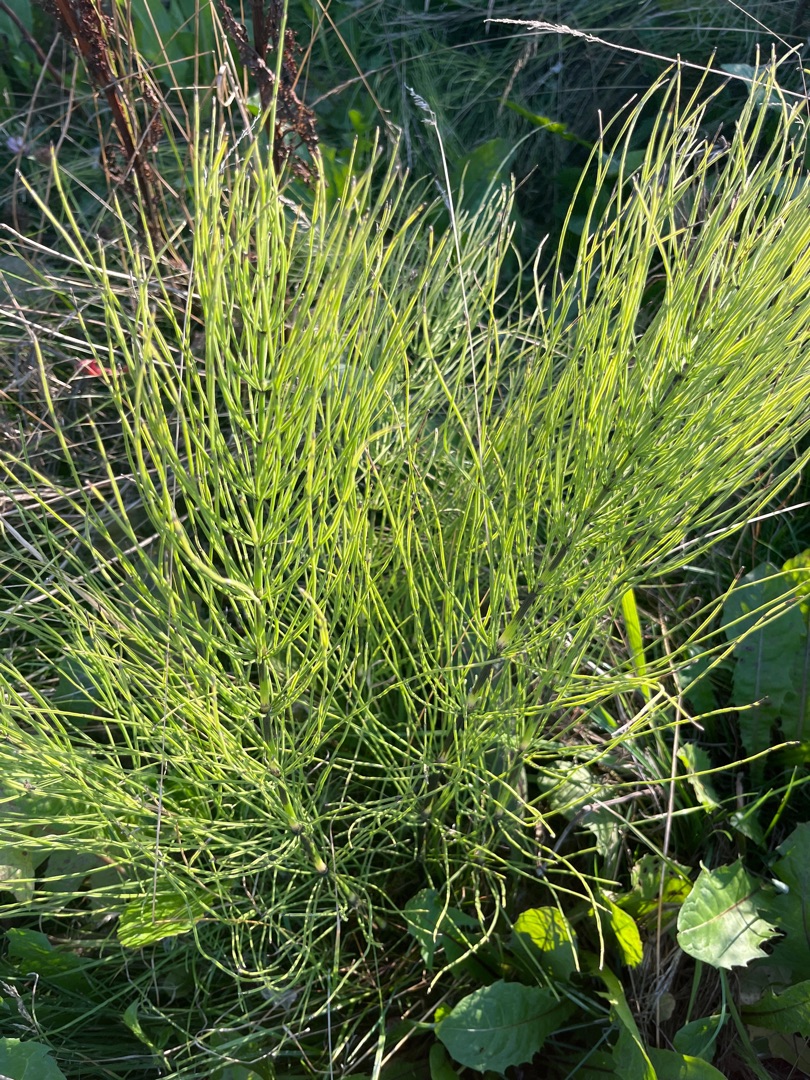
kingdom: Plantae
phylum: Tracheophyta
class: Polypodiopsida
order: Equisetales
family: Equisetaceae
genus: Equisetum
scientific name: Equisetum arvense
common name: Ager-padderok
